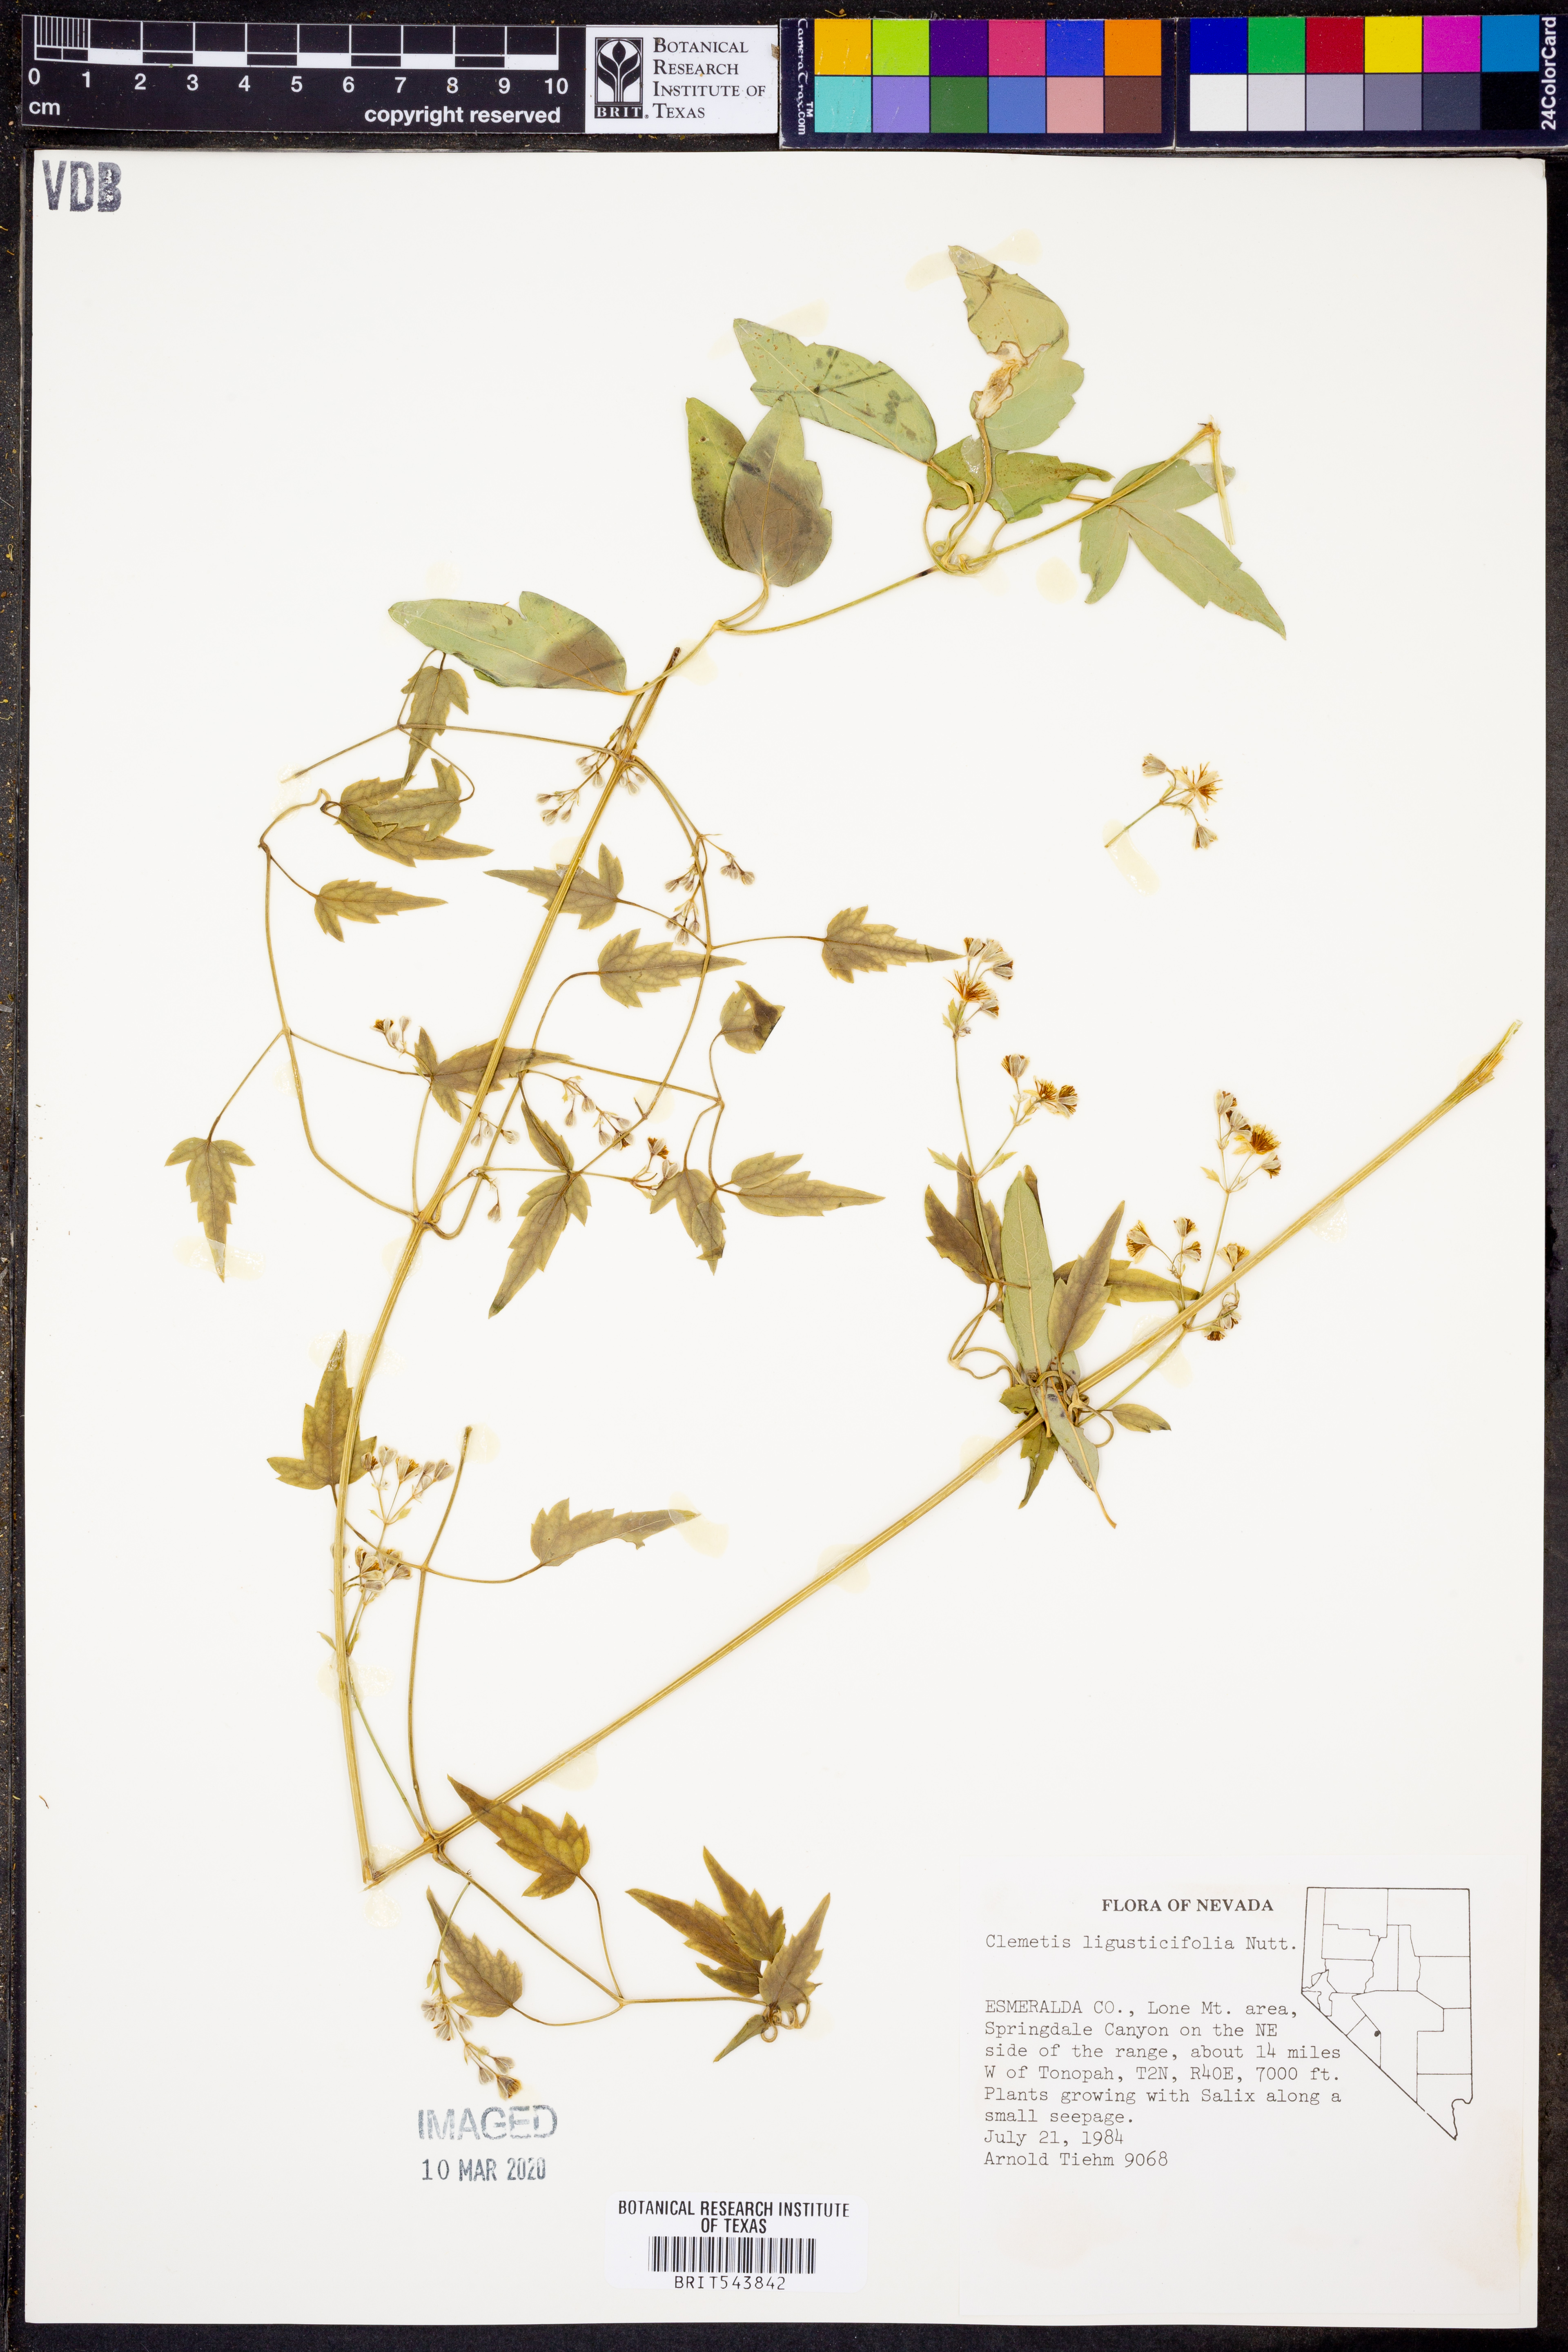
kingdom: Plantae
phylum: Tracheophyta
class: Magnoliopsida
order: Ranunculales
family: Ranunculaceae
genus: Clematis
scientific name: Clematis ligusticifolia
